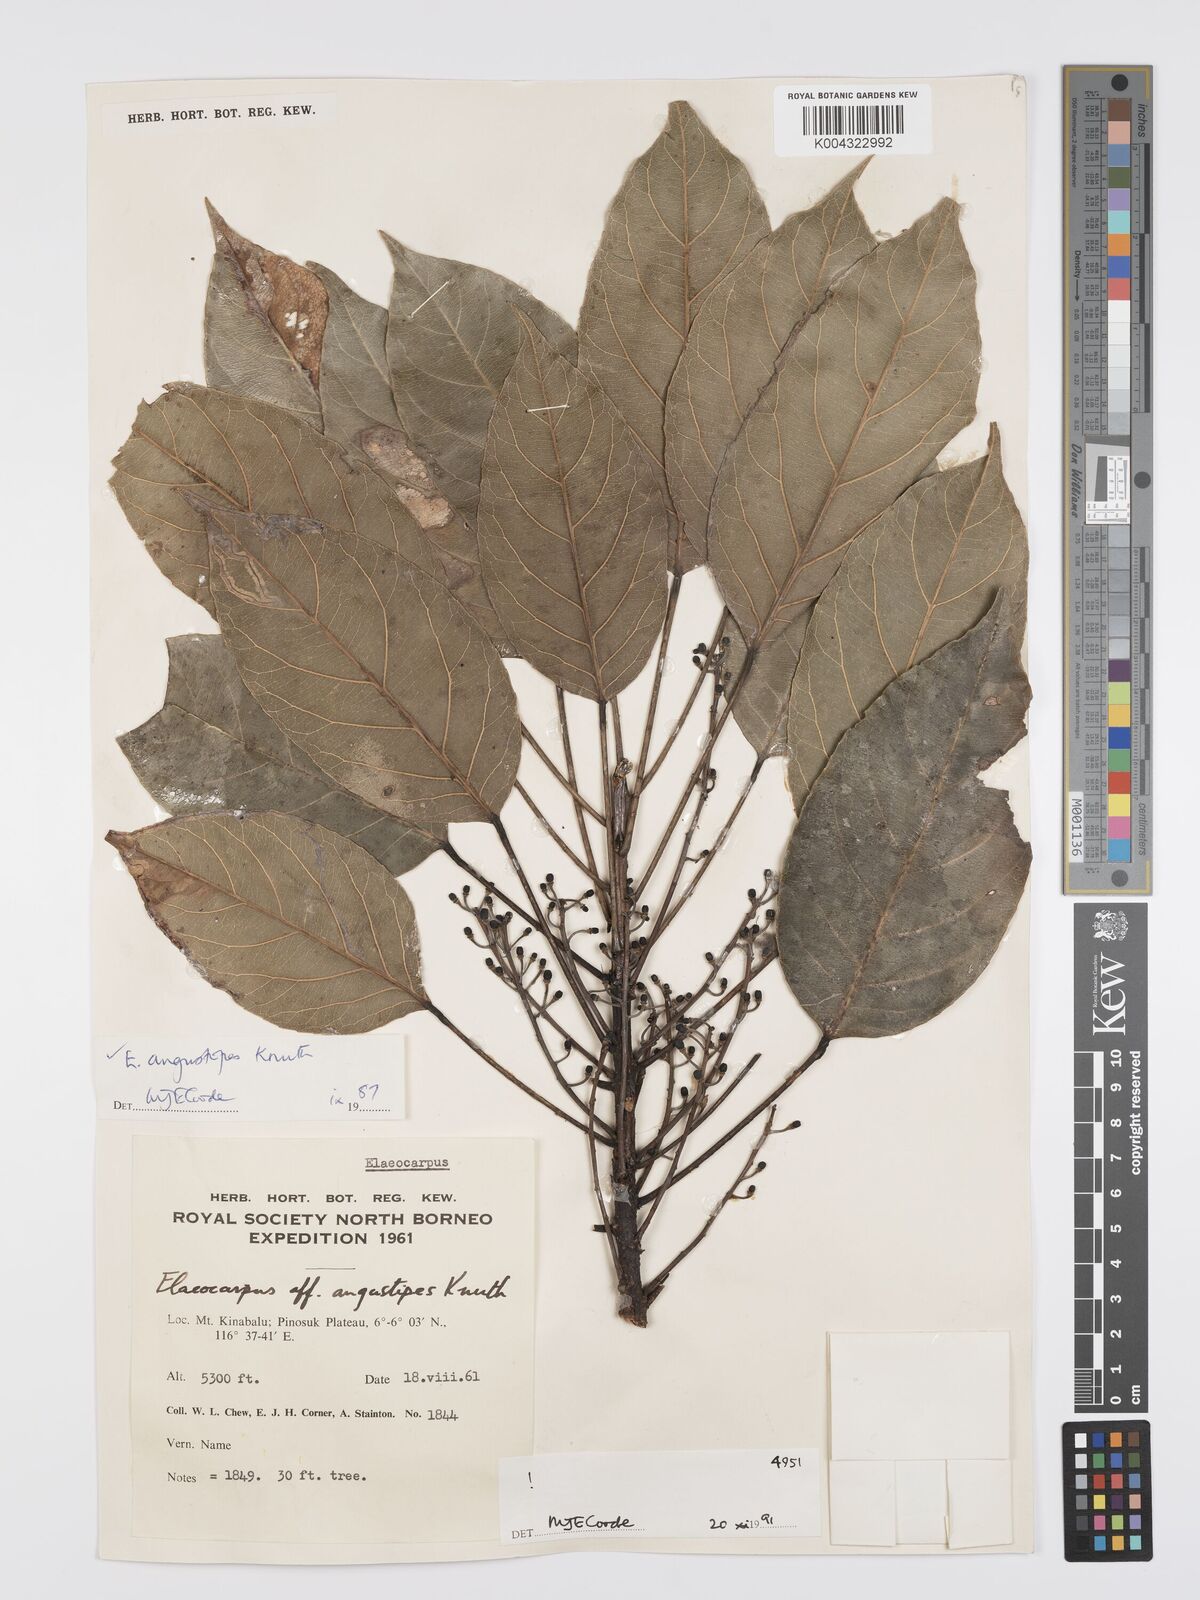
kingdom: Plantae
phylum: Tracheophyta
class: Magnoliopsida
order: Oxalidales
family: Elaeocarpaceae
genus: Elaeocarpus
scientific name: Elaeocarpus angustipes
